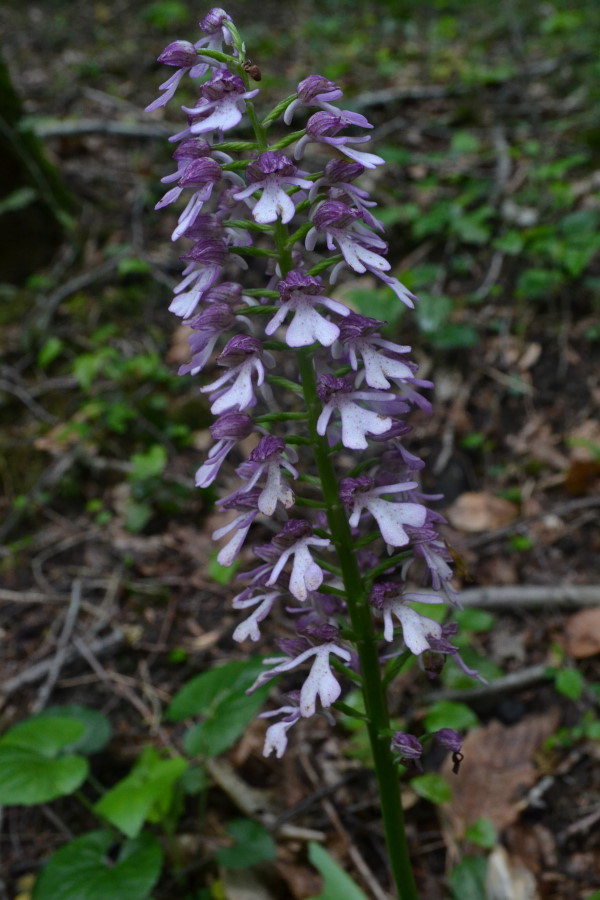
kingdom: Plantae
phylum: Tracheophyta
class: Liliopsida
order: Asparagales
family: Orchidaceae
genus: Orchis
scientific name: Orchis purpurea
